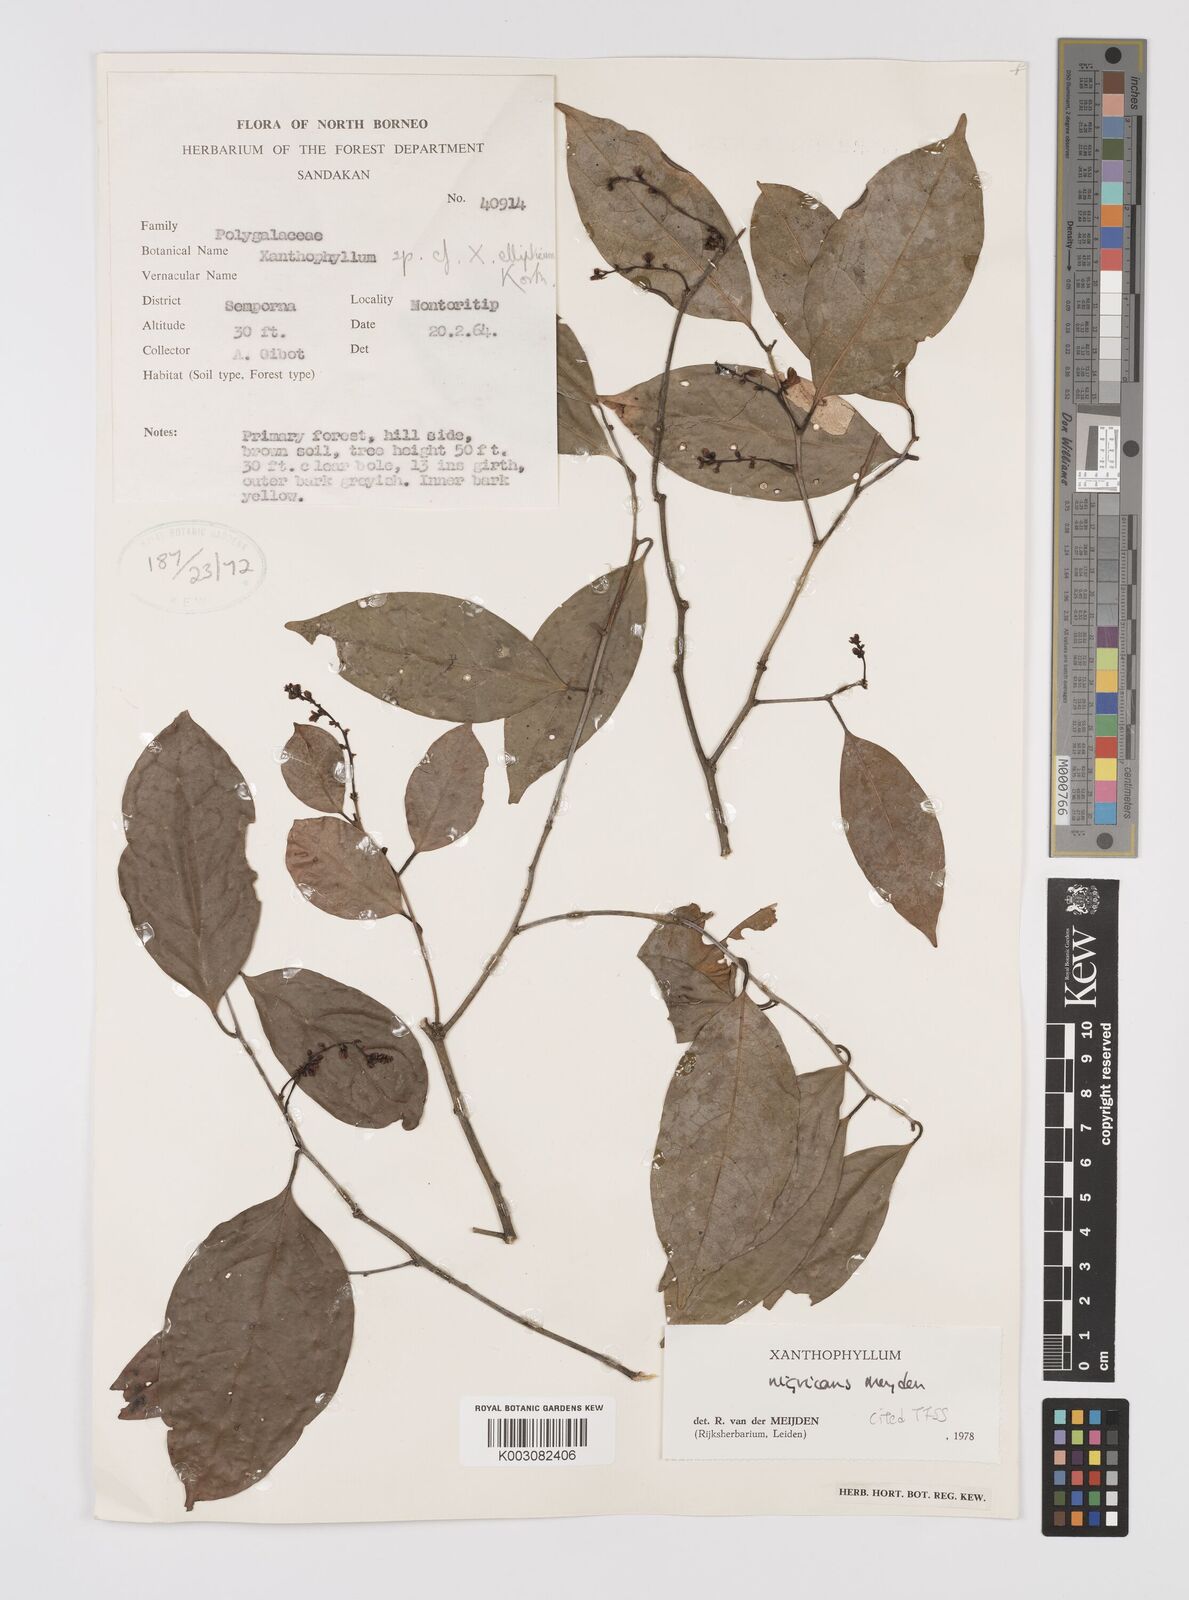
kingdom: Plantae
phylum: Tracheophyta
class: Magnoliopsida
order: Fabales
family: Polygalaceae
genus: Xanthophyllum
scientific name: Xanthophyllum nigricans
